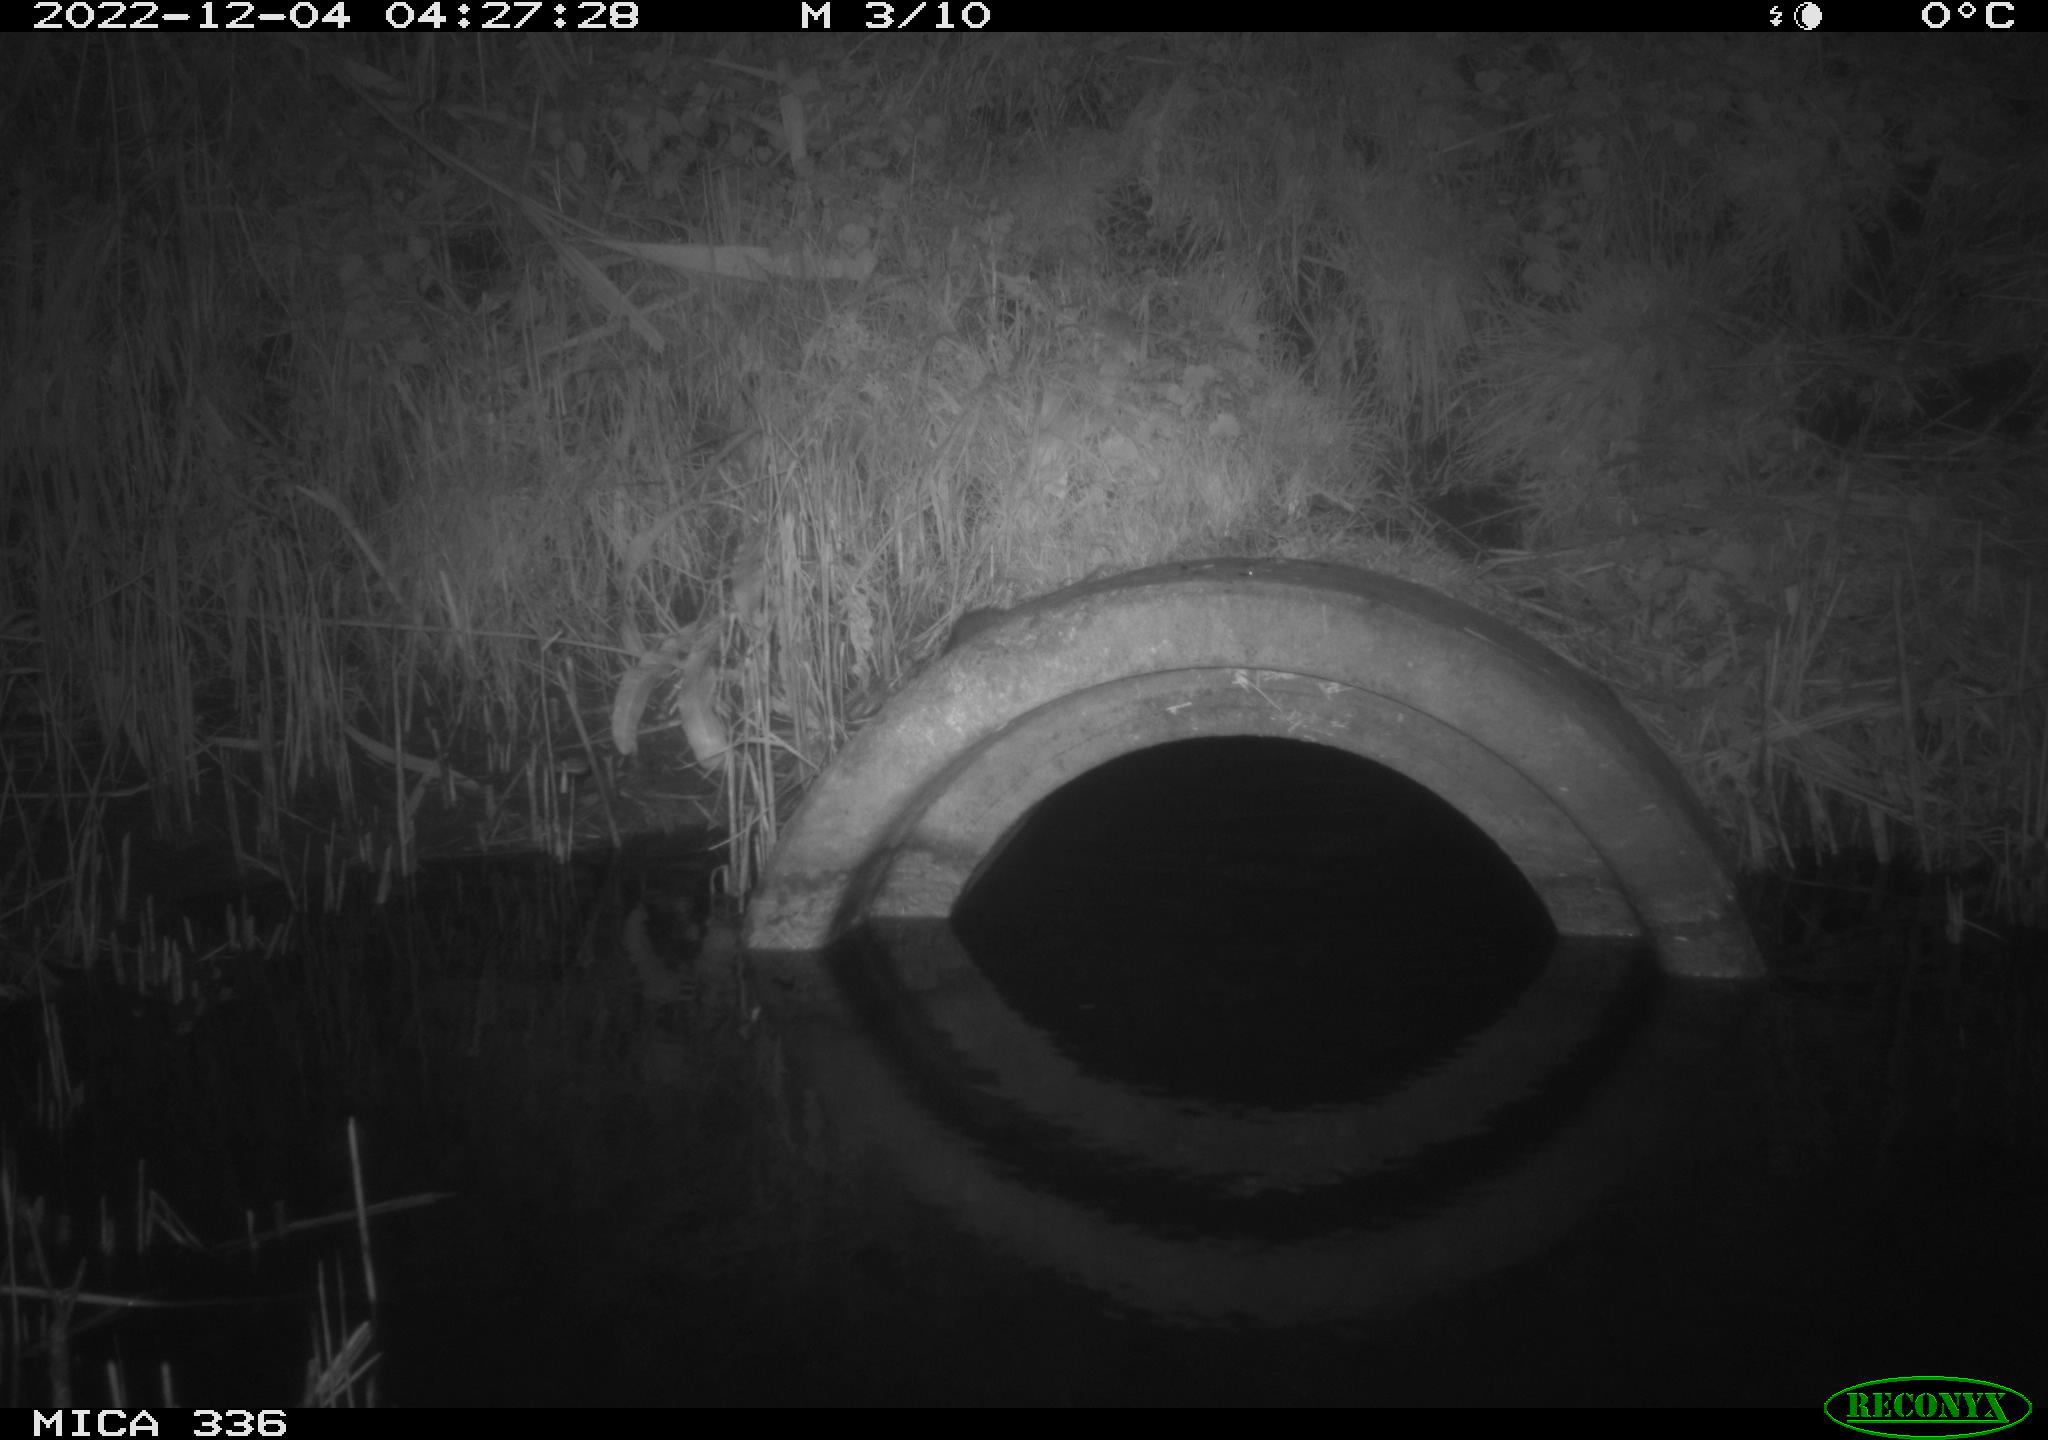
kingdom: Animalia
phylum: Chordata
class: Mammalia
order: Rodentia
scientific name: Rodentia
